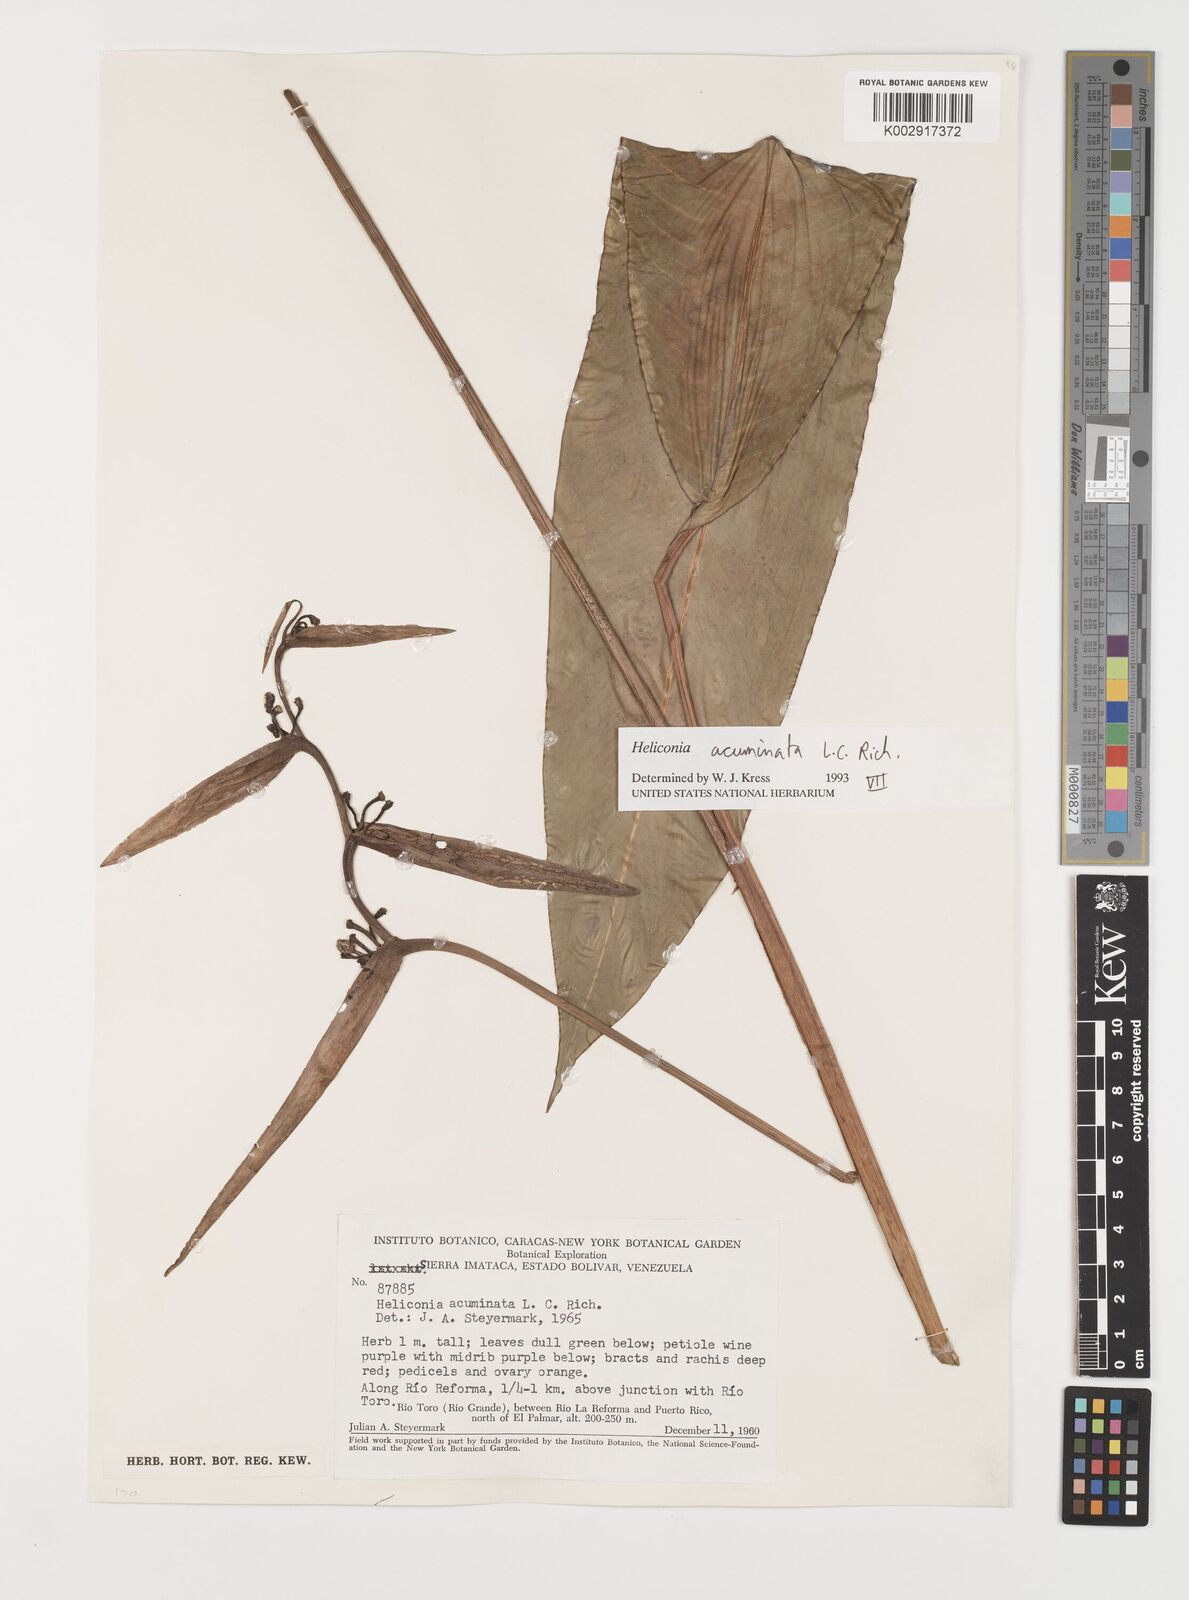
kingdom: Plantae
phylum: Tracheophyta
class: Liliopsida
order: Zingiberales
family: Heliconiaceae
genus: Heliconia
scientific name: Heliconia acuminata
